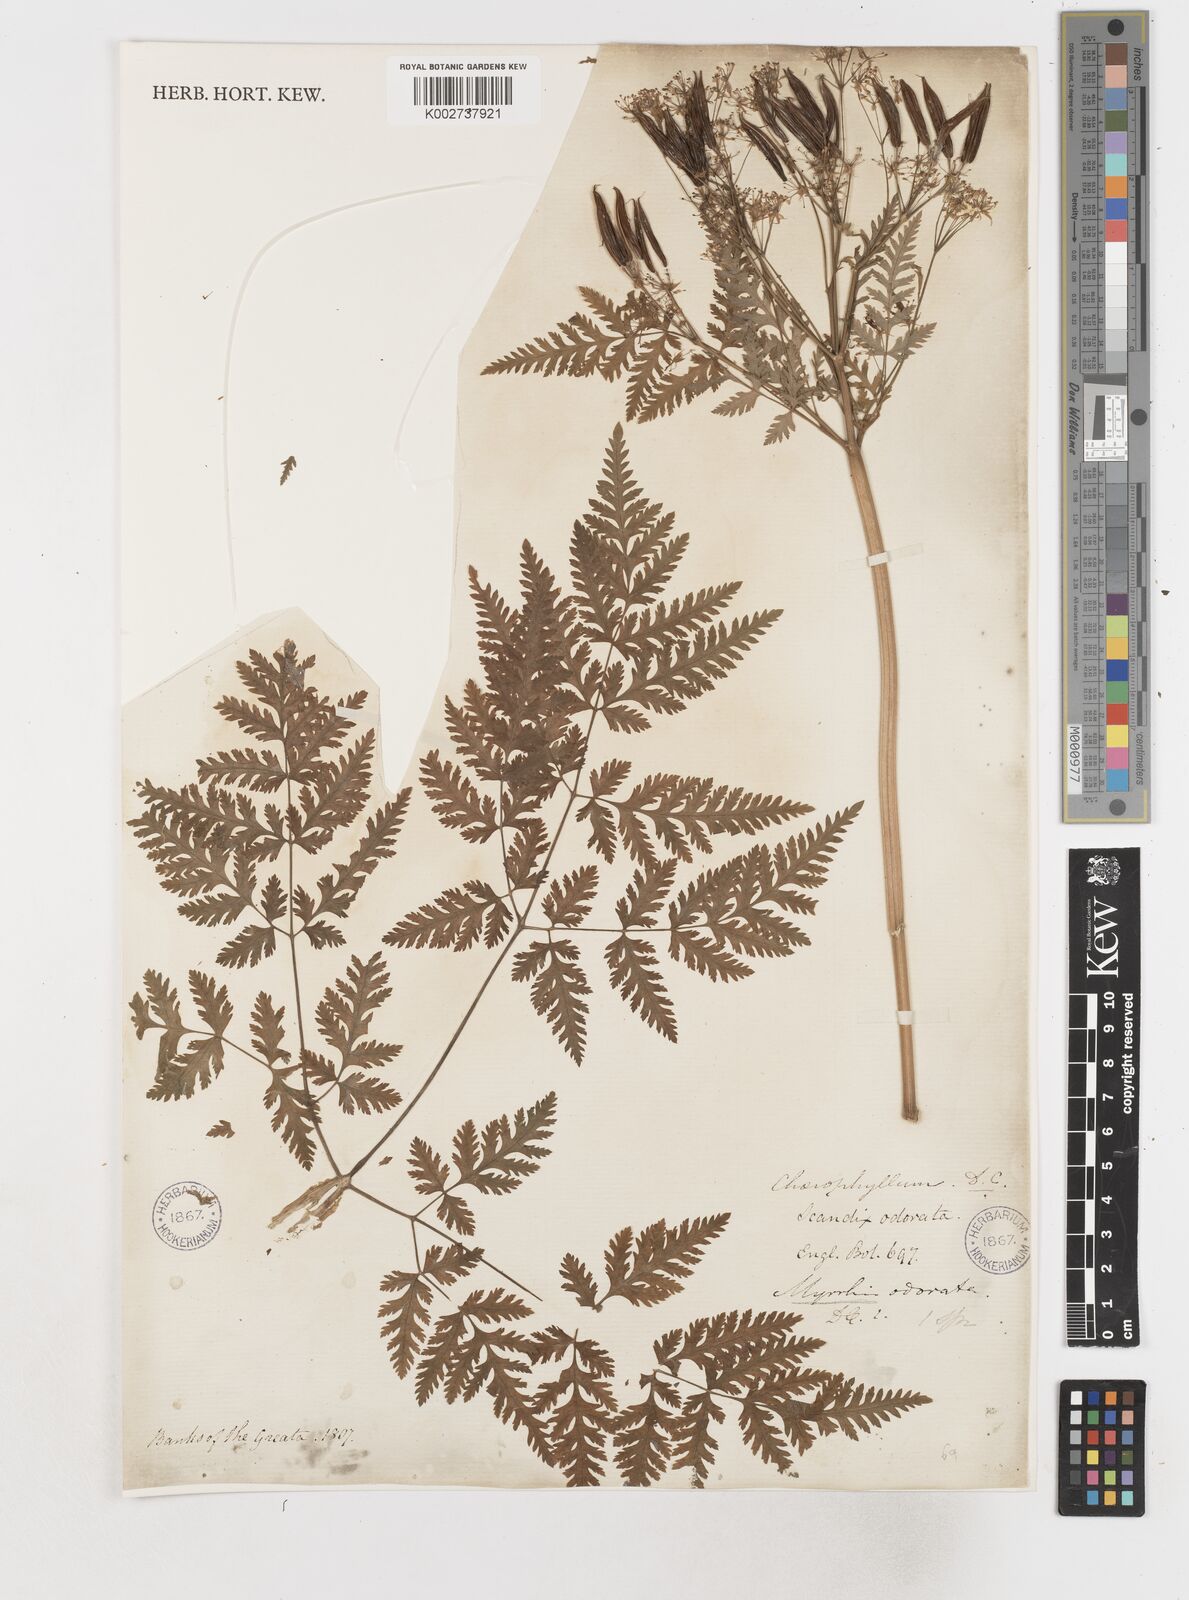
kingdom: Plantae
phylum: Tracheophyta
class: Magnoliopsida
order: Apiales
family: Apiaceae
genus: Myrrhis
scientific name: Myrrhis odorata
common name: Sweet cicely
